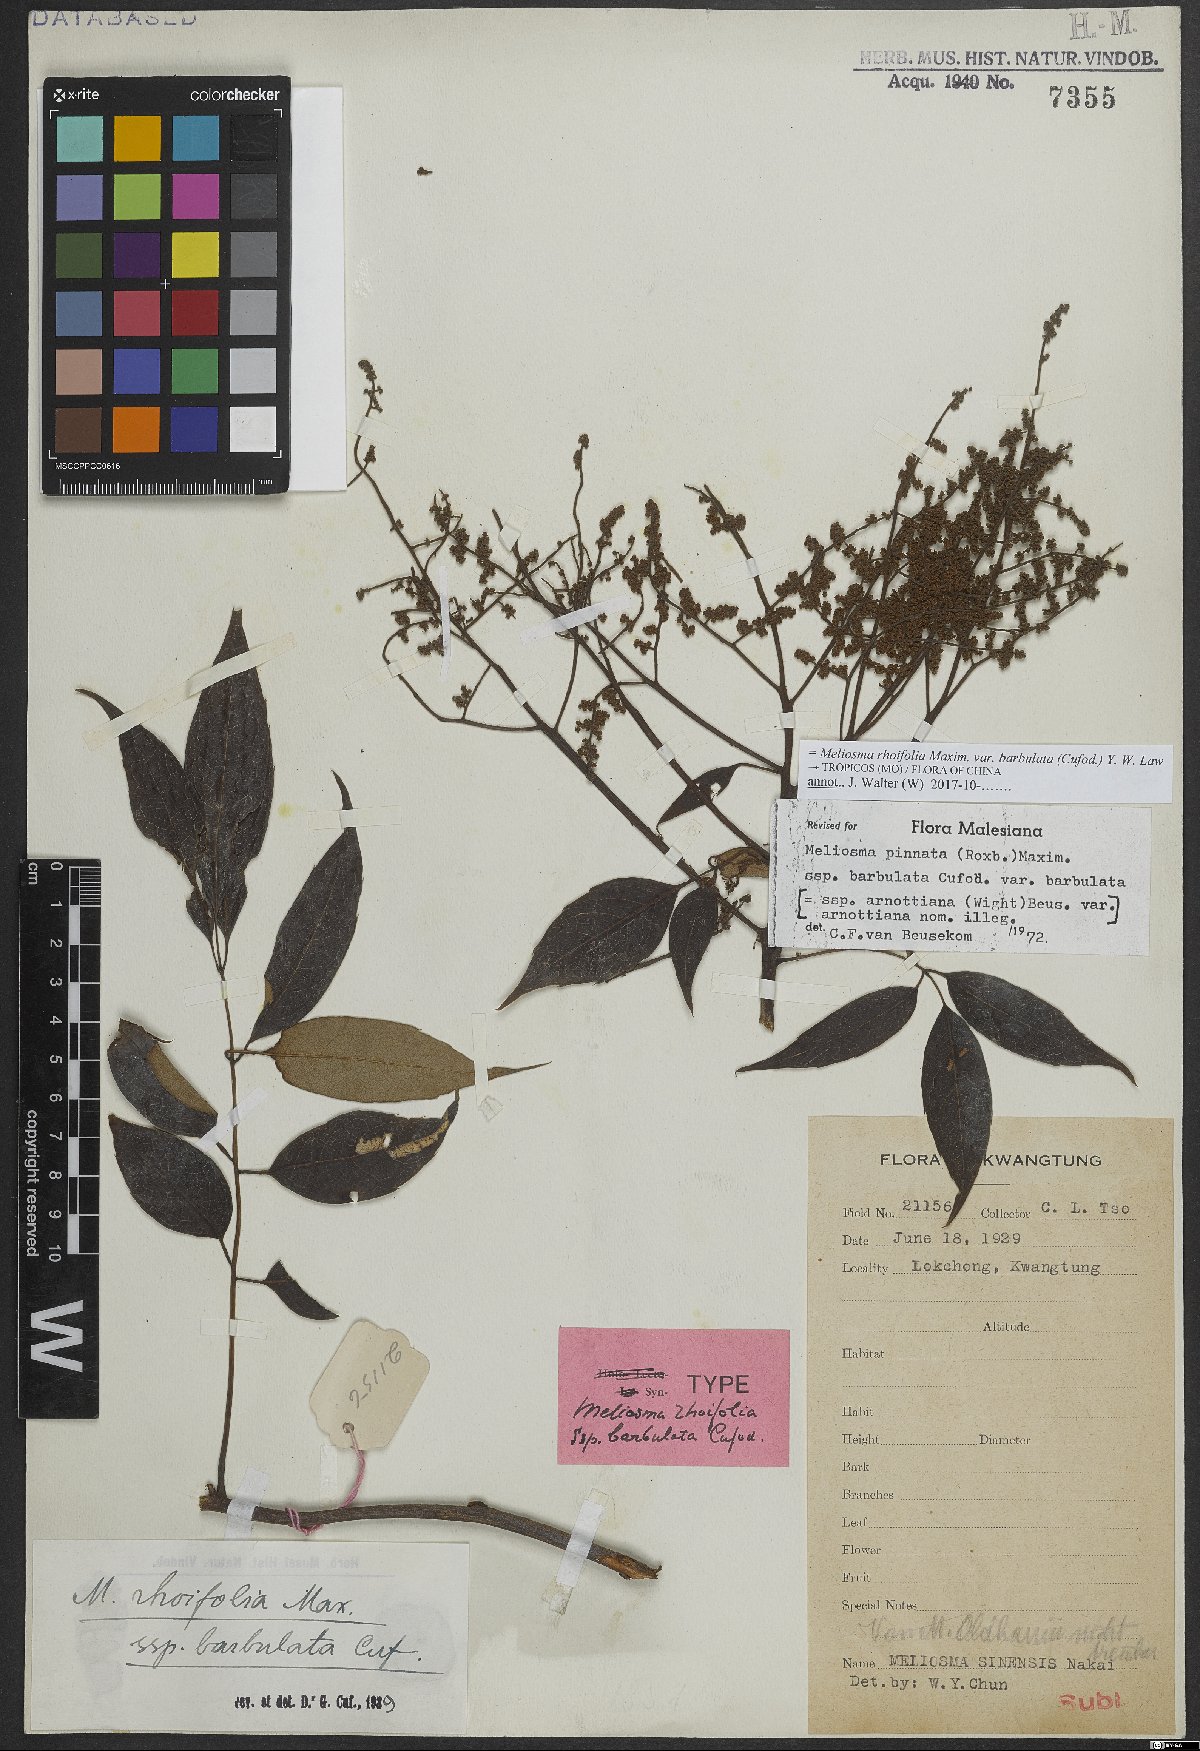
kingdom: Plantae
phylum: Tracheophyta
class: Magnoliopsida
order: Proteales
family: Sabiaceae
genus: Meliosma
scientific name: Meliosma rhoifolia
